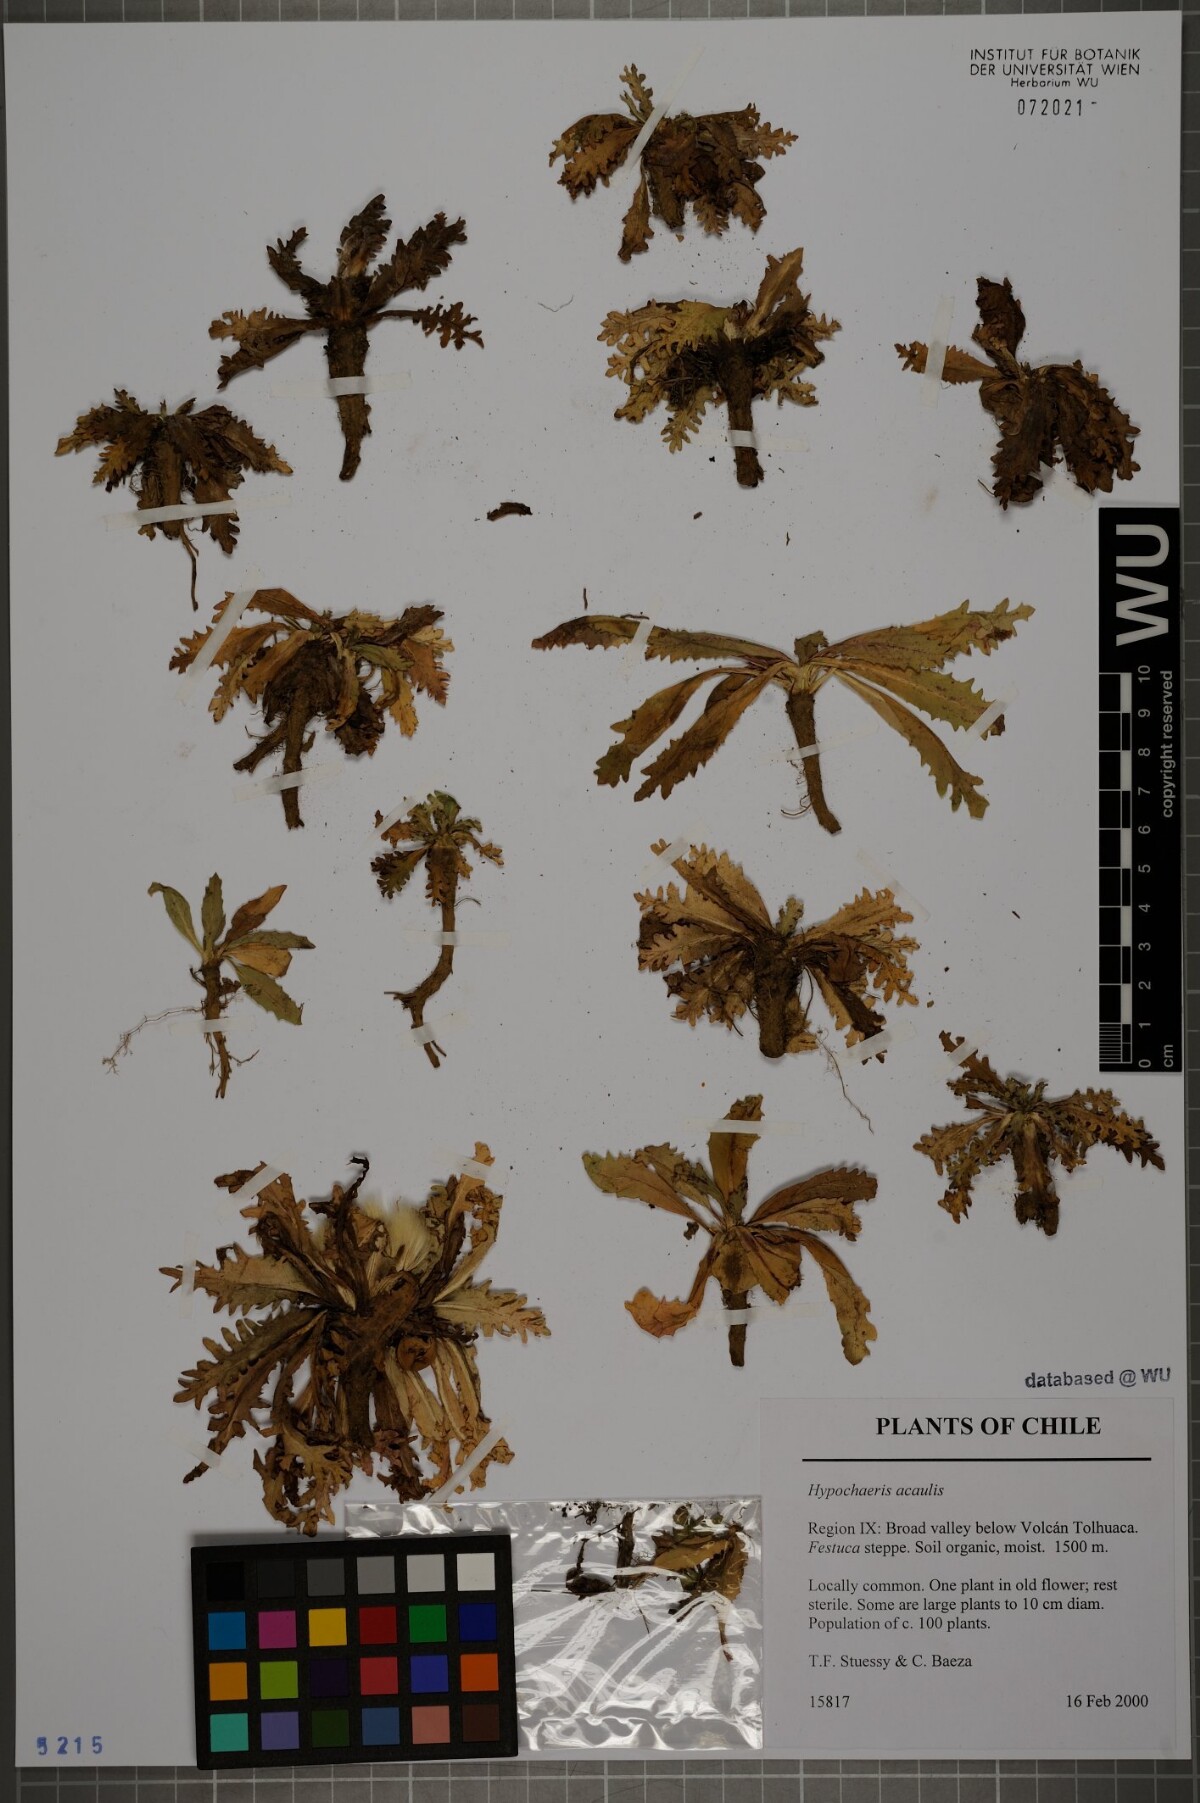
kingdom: Plantae
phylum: Tracheophyta
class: Magnoliopsida
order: Asterales
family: Asteraceae
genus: Hypochaeris
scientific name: Hypochaeris acaulis
